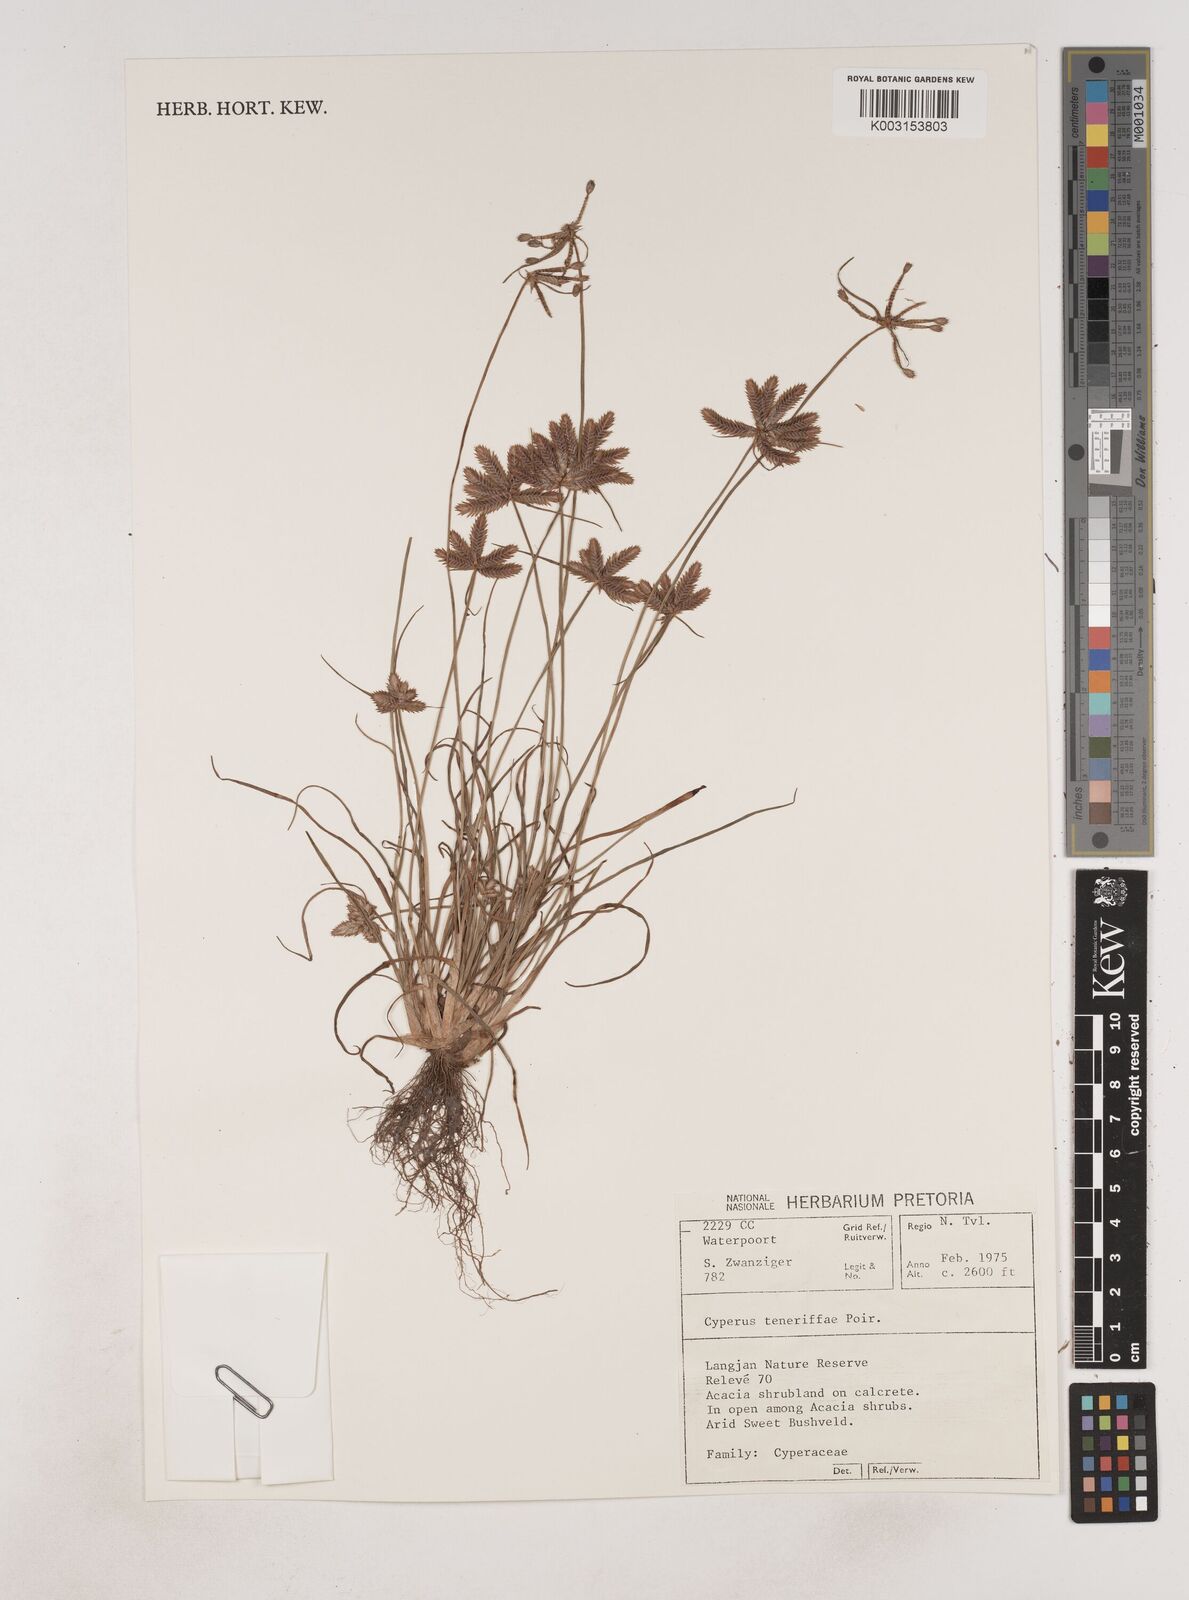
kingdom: Plantae
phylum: Tracheophyta
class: Liliopsida
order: Poales
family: Cyperaceae
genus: Cyperus
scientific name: Cyperus rubicundus
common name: Coco-grass
